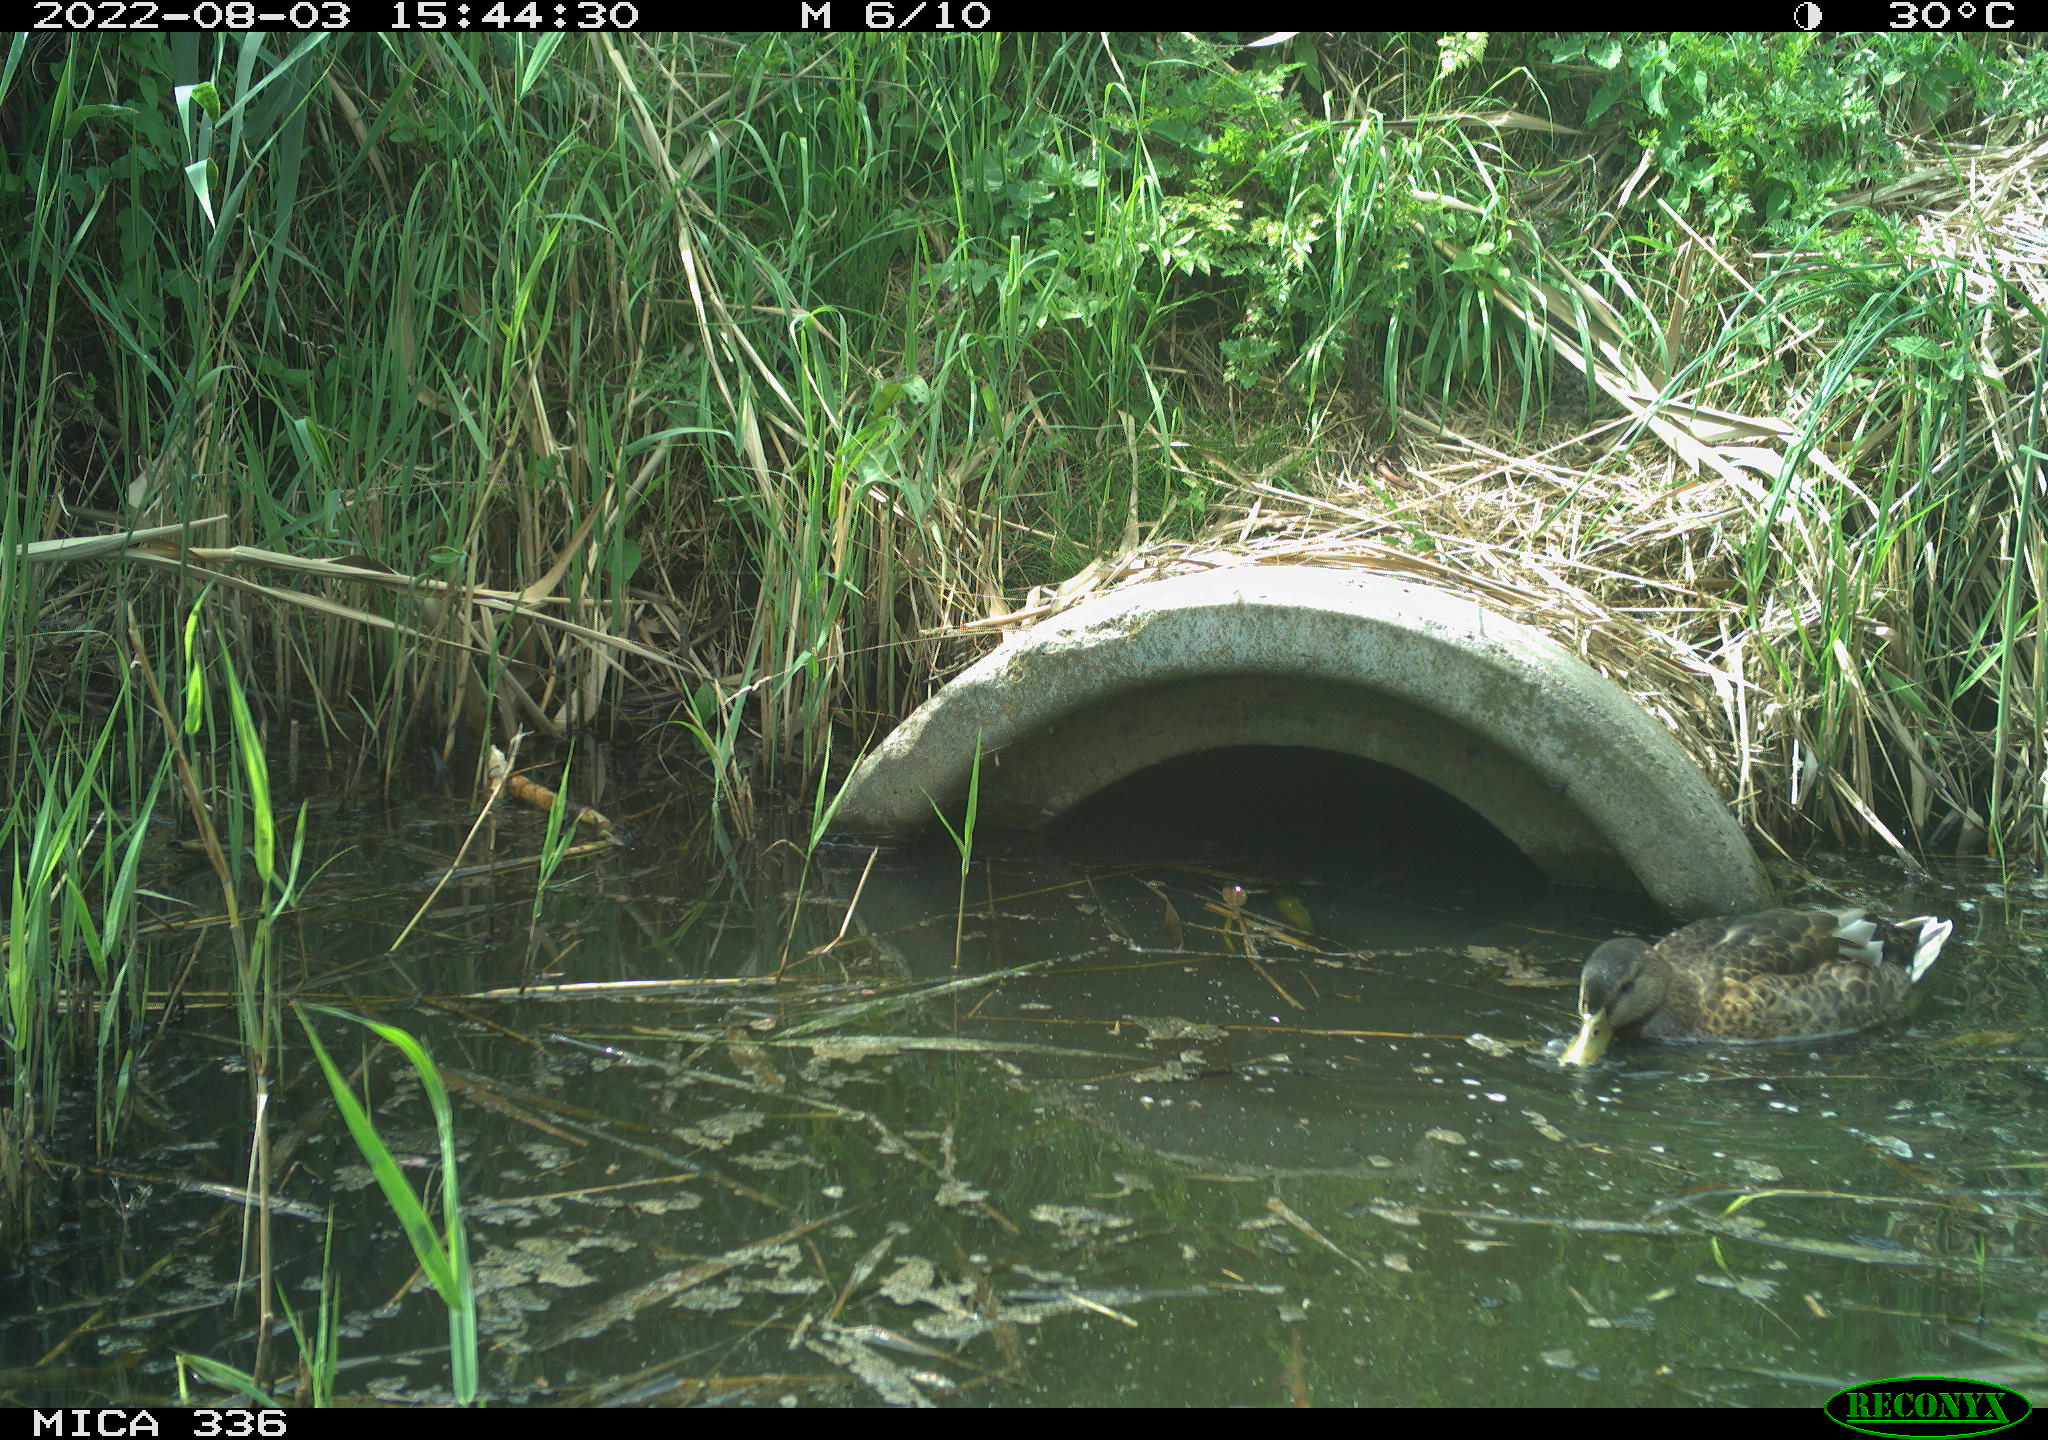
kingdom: Animalia
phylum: Chordata
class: Aves
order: Anseriformes
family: Anatidae
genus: Anas
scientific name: Anas platyrhynchos
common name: Mallard
